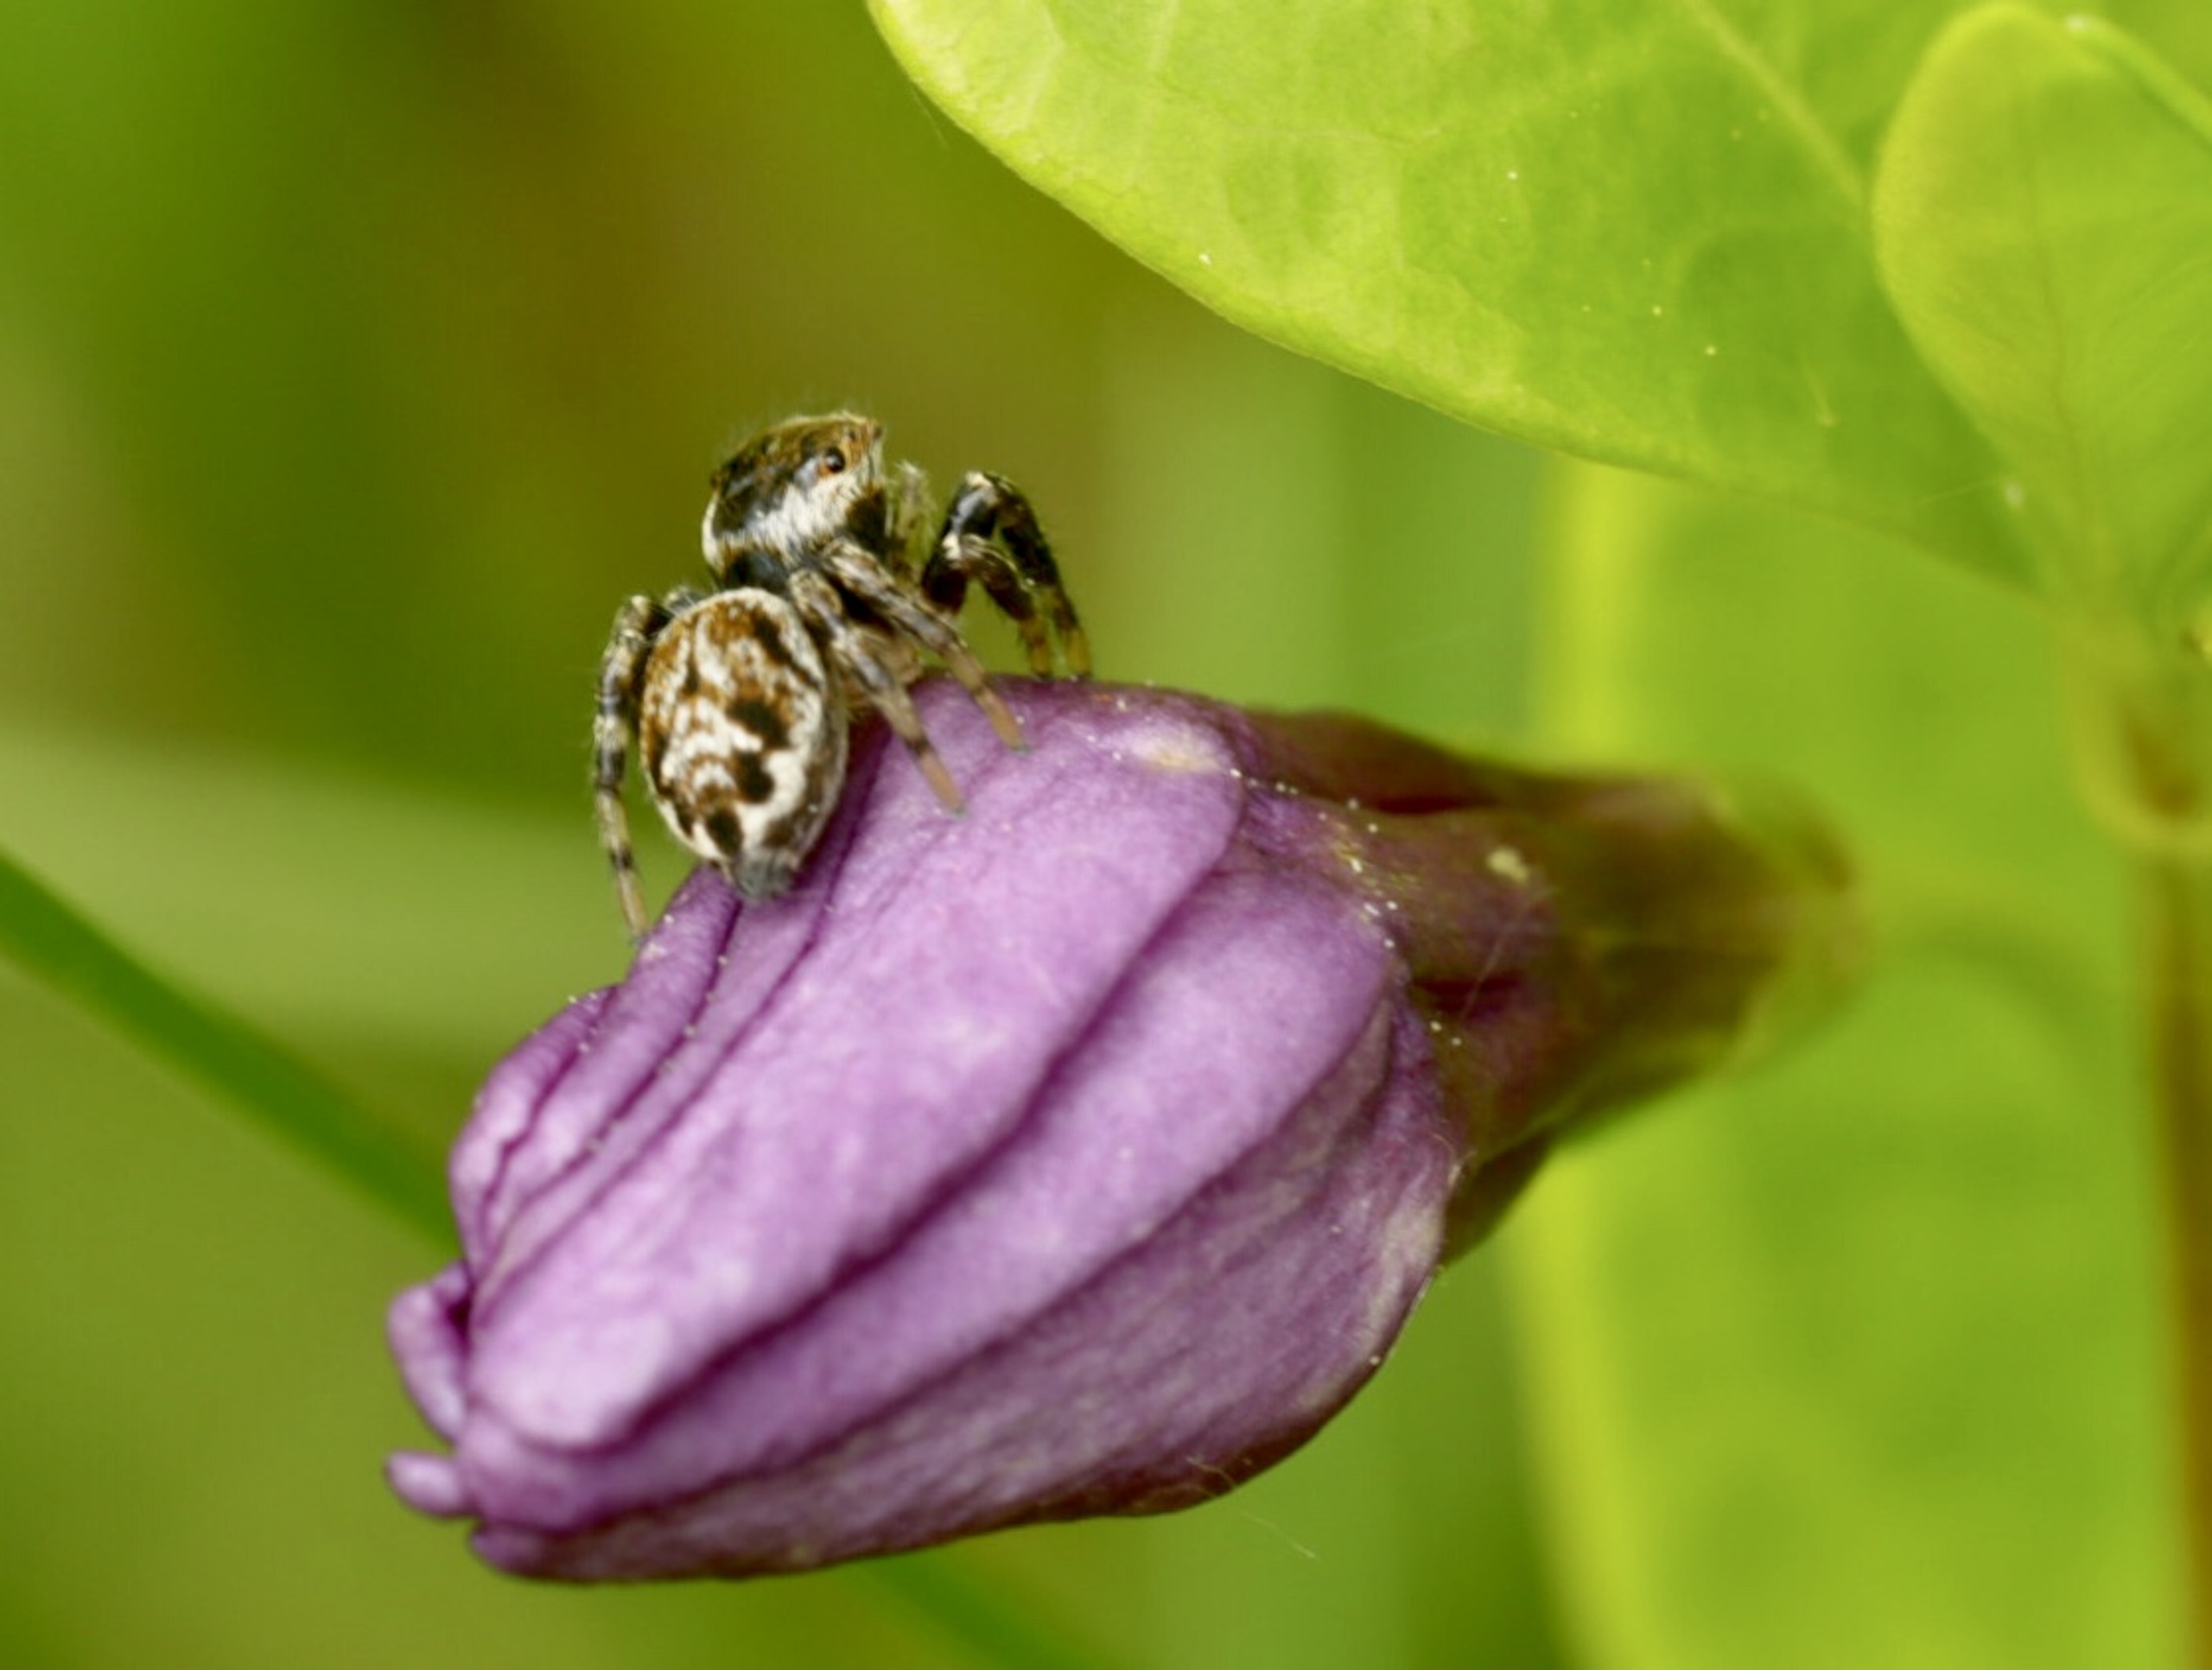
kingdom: Animalia
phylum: Arthropoda
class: Arachnida
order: Araneae
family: Salticidae
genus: Evarcha
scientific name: Evarcha falcata
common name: Broget springedderkop
